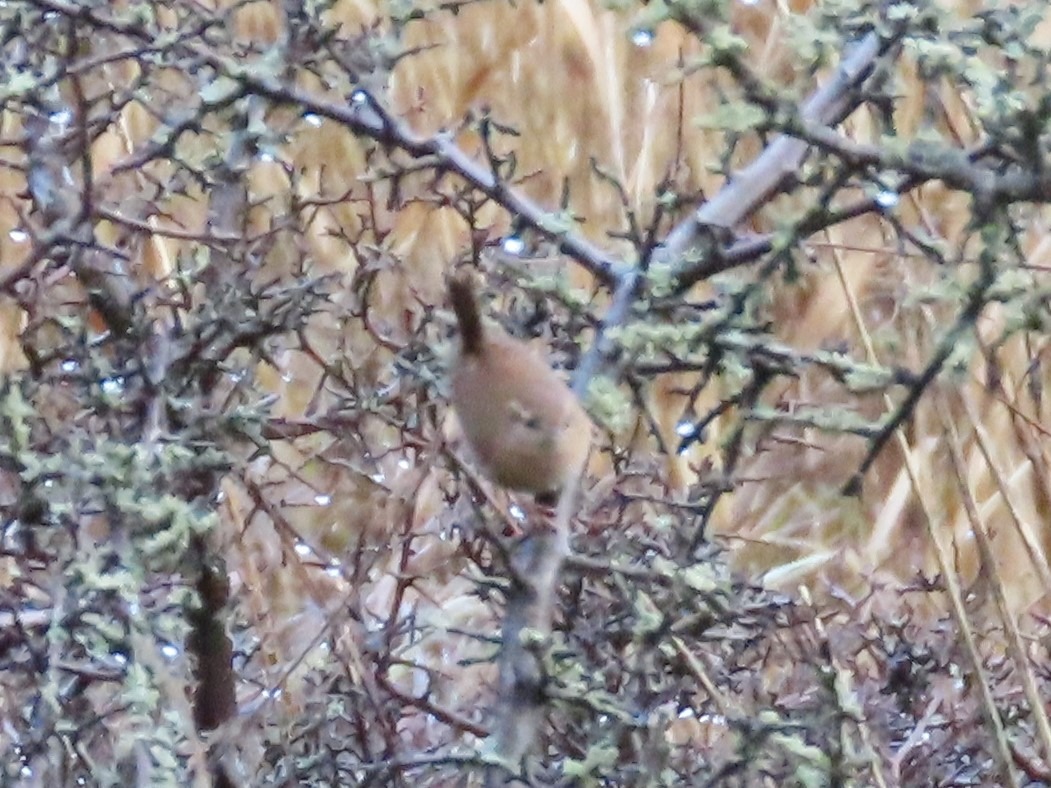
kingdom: Animalia
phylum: Chordata
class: Aves
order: Passeriformes
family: Troglodytidae
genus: Troglodytes
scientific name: Troglodytes troglodytes
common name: Gærdesmutte
